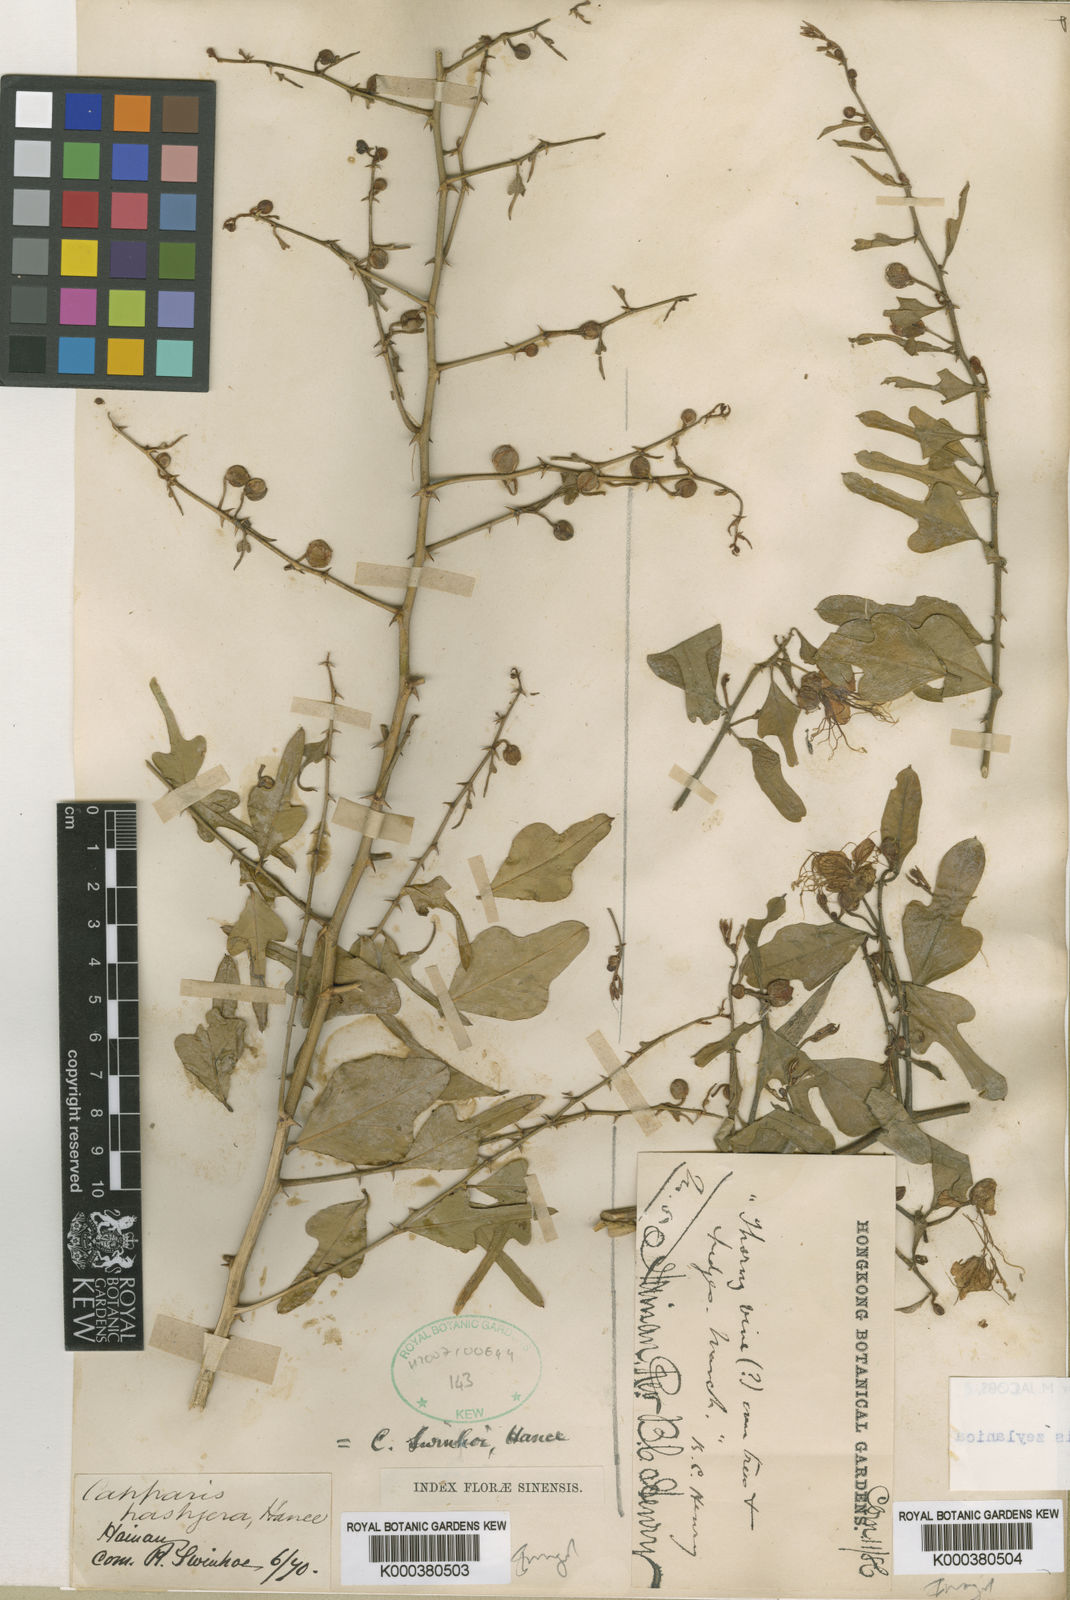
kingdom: Plantae
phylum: Tracheophyta
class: Magnoliopsida
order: Brassicales
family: Capparaceae
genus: Capparis
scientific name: Capparis zeylanica
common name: Ceylon caper
